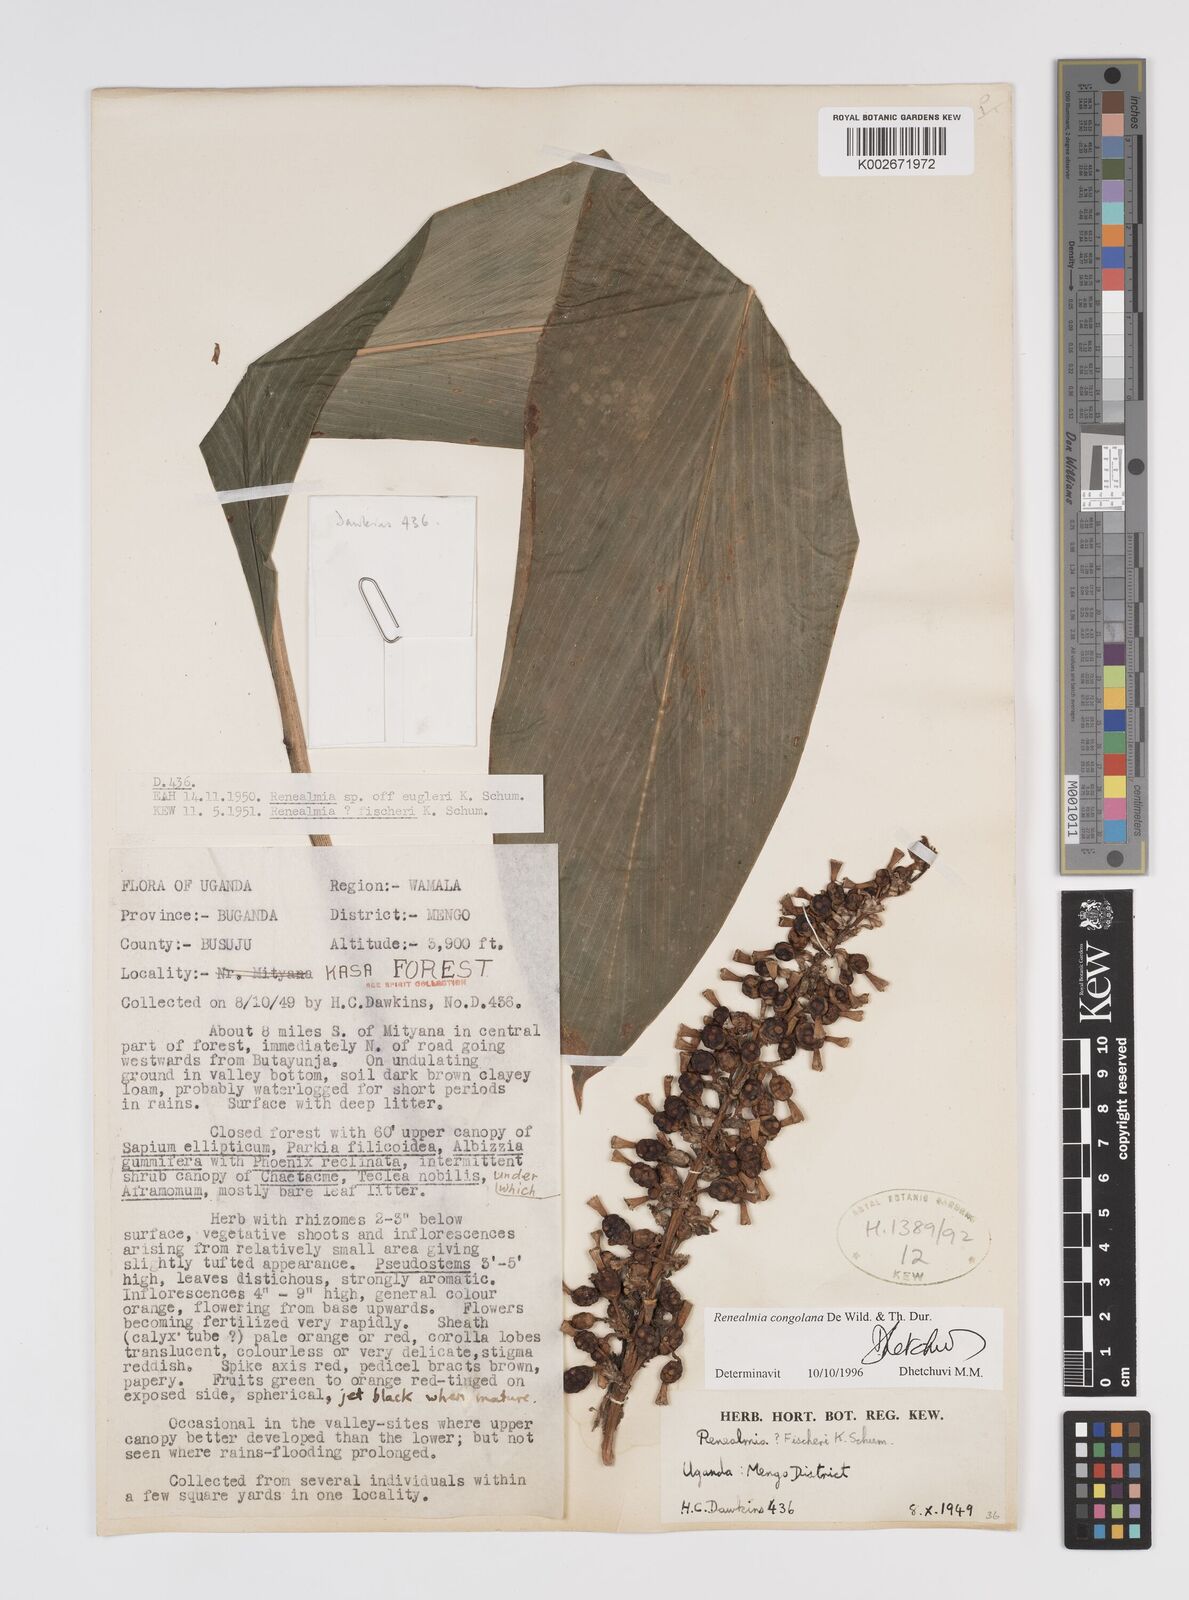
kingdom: Plantae
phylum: Tracheophyta
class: Liliopsida
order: Zingiberales
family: Zingiberaceae
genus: Renealmia
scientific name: Renealmia congolana
